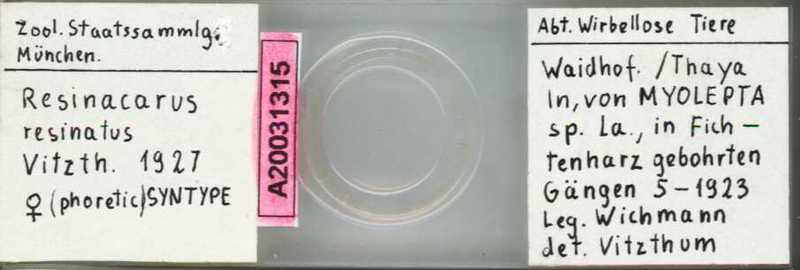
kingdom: Animalia
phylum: Arthropoda
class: Arachnida
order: Trombidiformes
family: Resinacaridae
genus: Resinacarus
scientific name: Resinacarus resinatus
